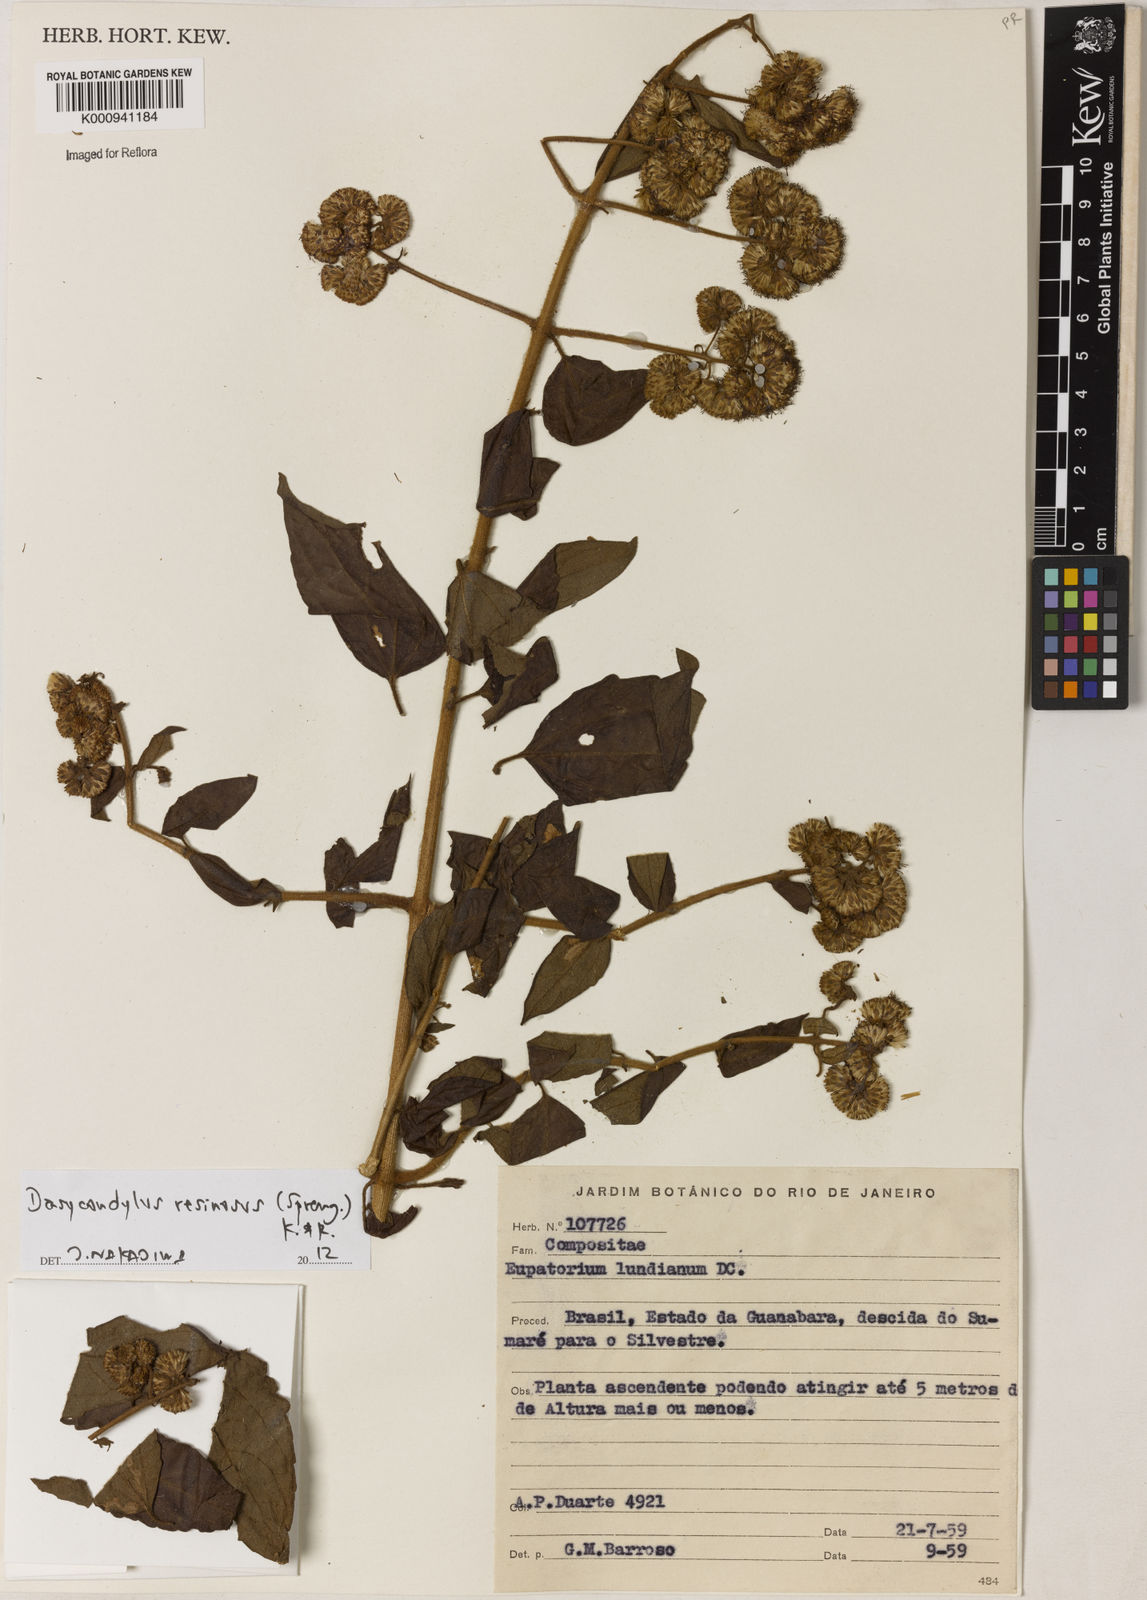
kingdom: Plantae
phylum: Tracheophyta
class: Magnoliopsida
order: Asterales
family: Asteraceae
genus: Dasycondylus
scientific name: Dasycondylus resinosus
